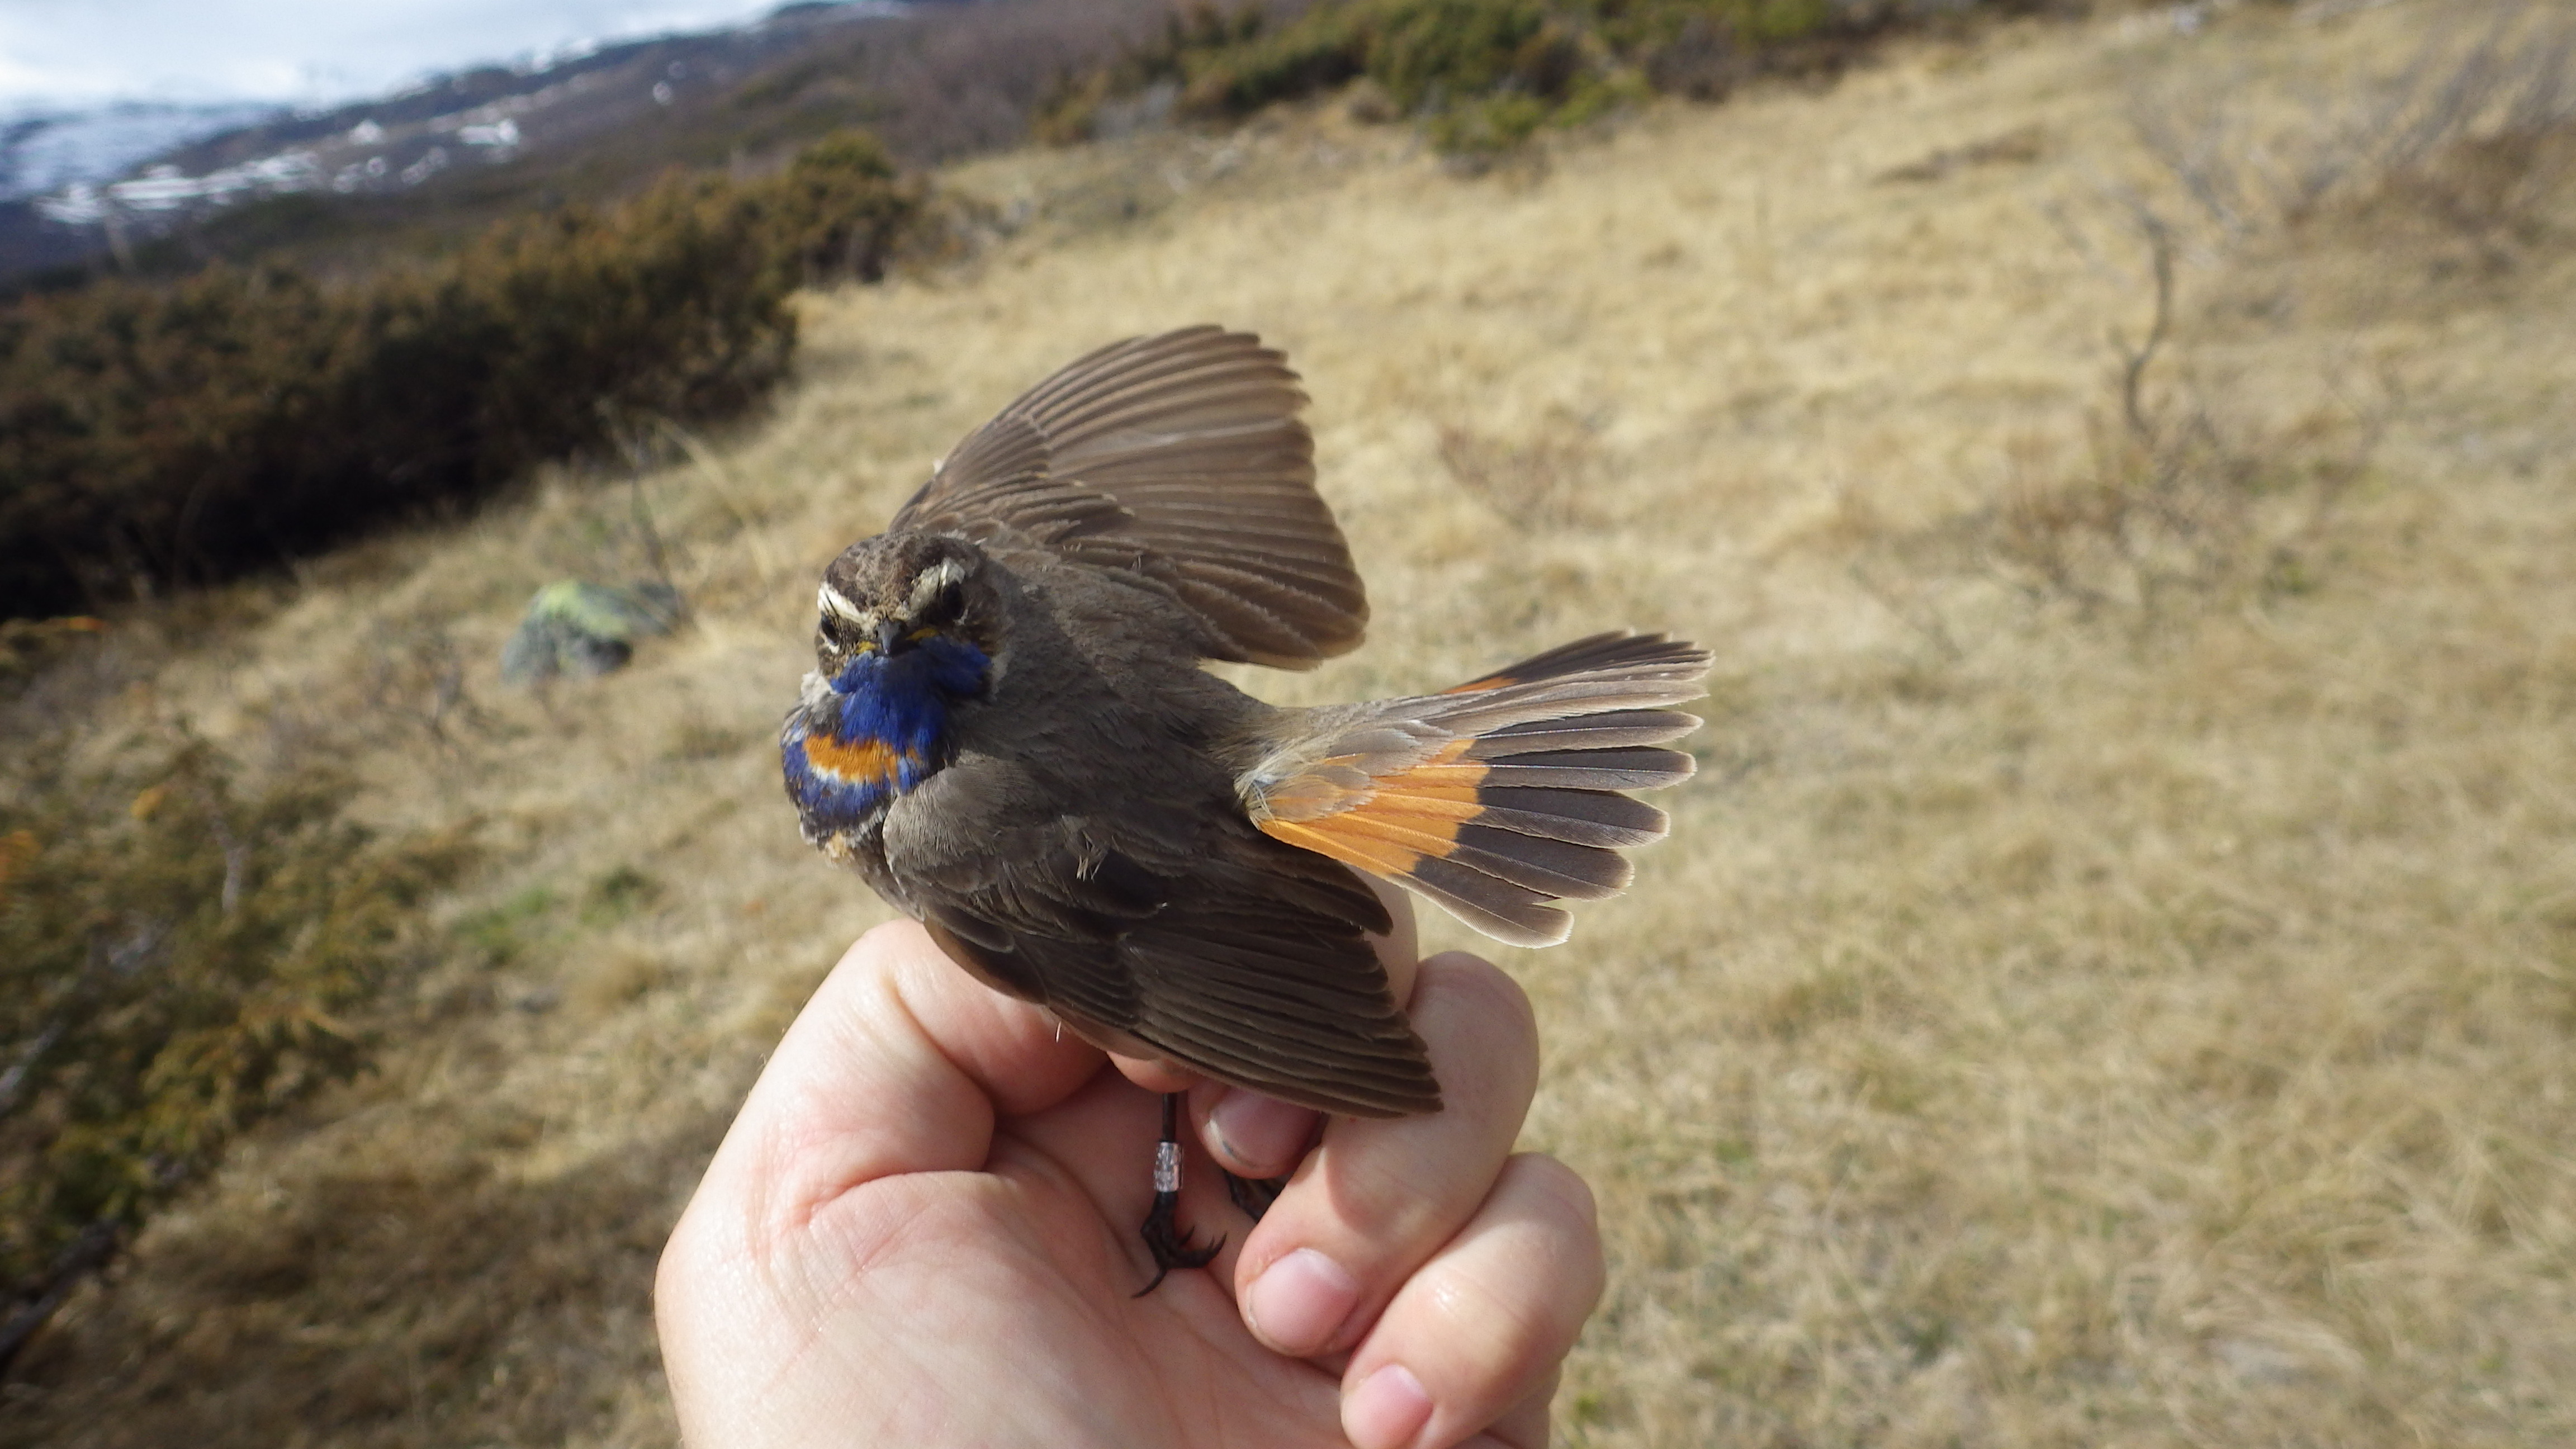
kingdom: Animalia
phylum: Chordata
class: Aves
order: Passeriformes
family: Muscicapidae
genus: Luscinia
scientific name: Luscinia svecica
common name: Bluethroat
